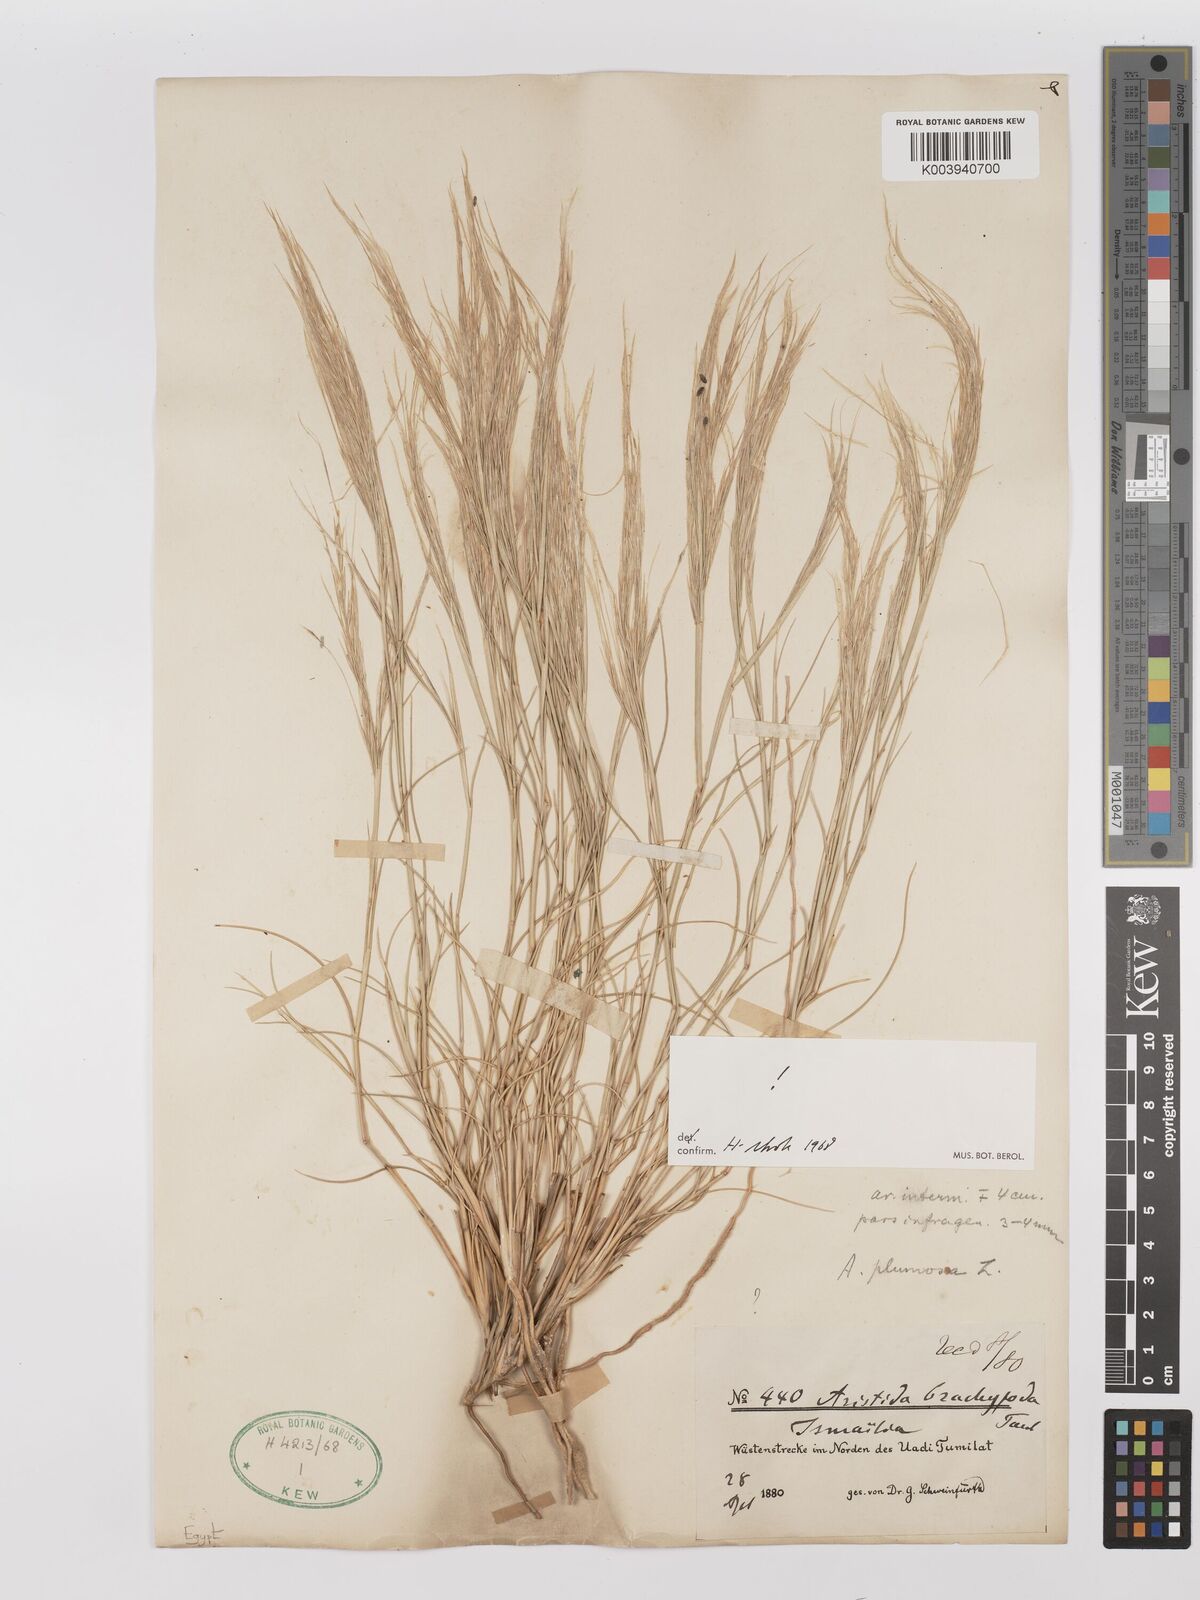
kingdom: Plantae
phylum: Tracheophyta
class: Liliopsida
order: Poales
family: Poaceae
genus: Stipagrostis
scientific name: Stipagrostis plumosa
